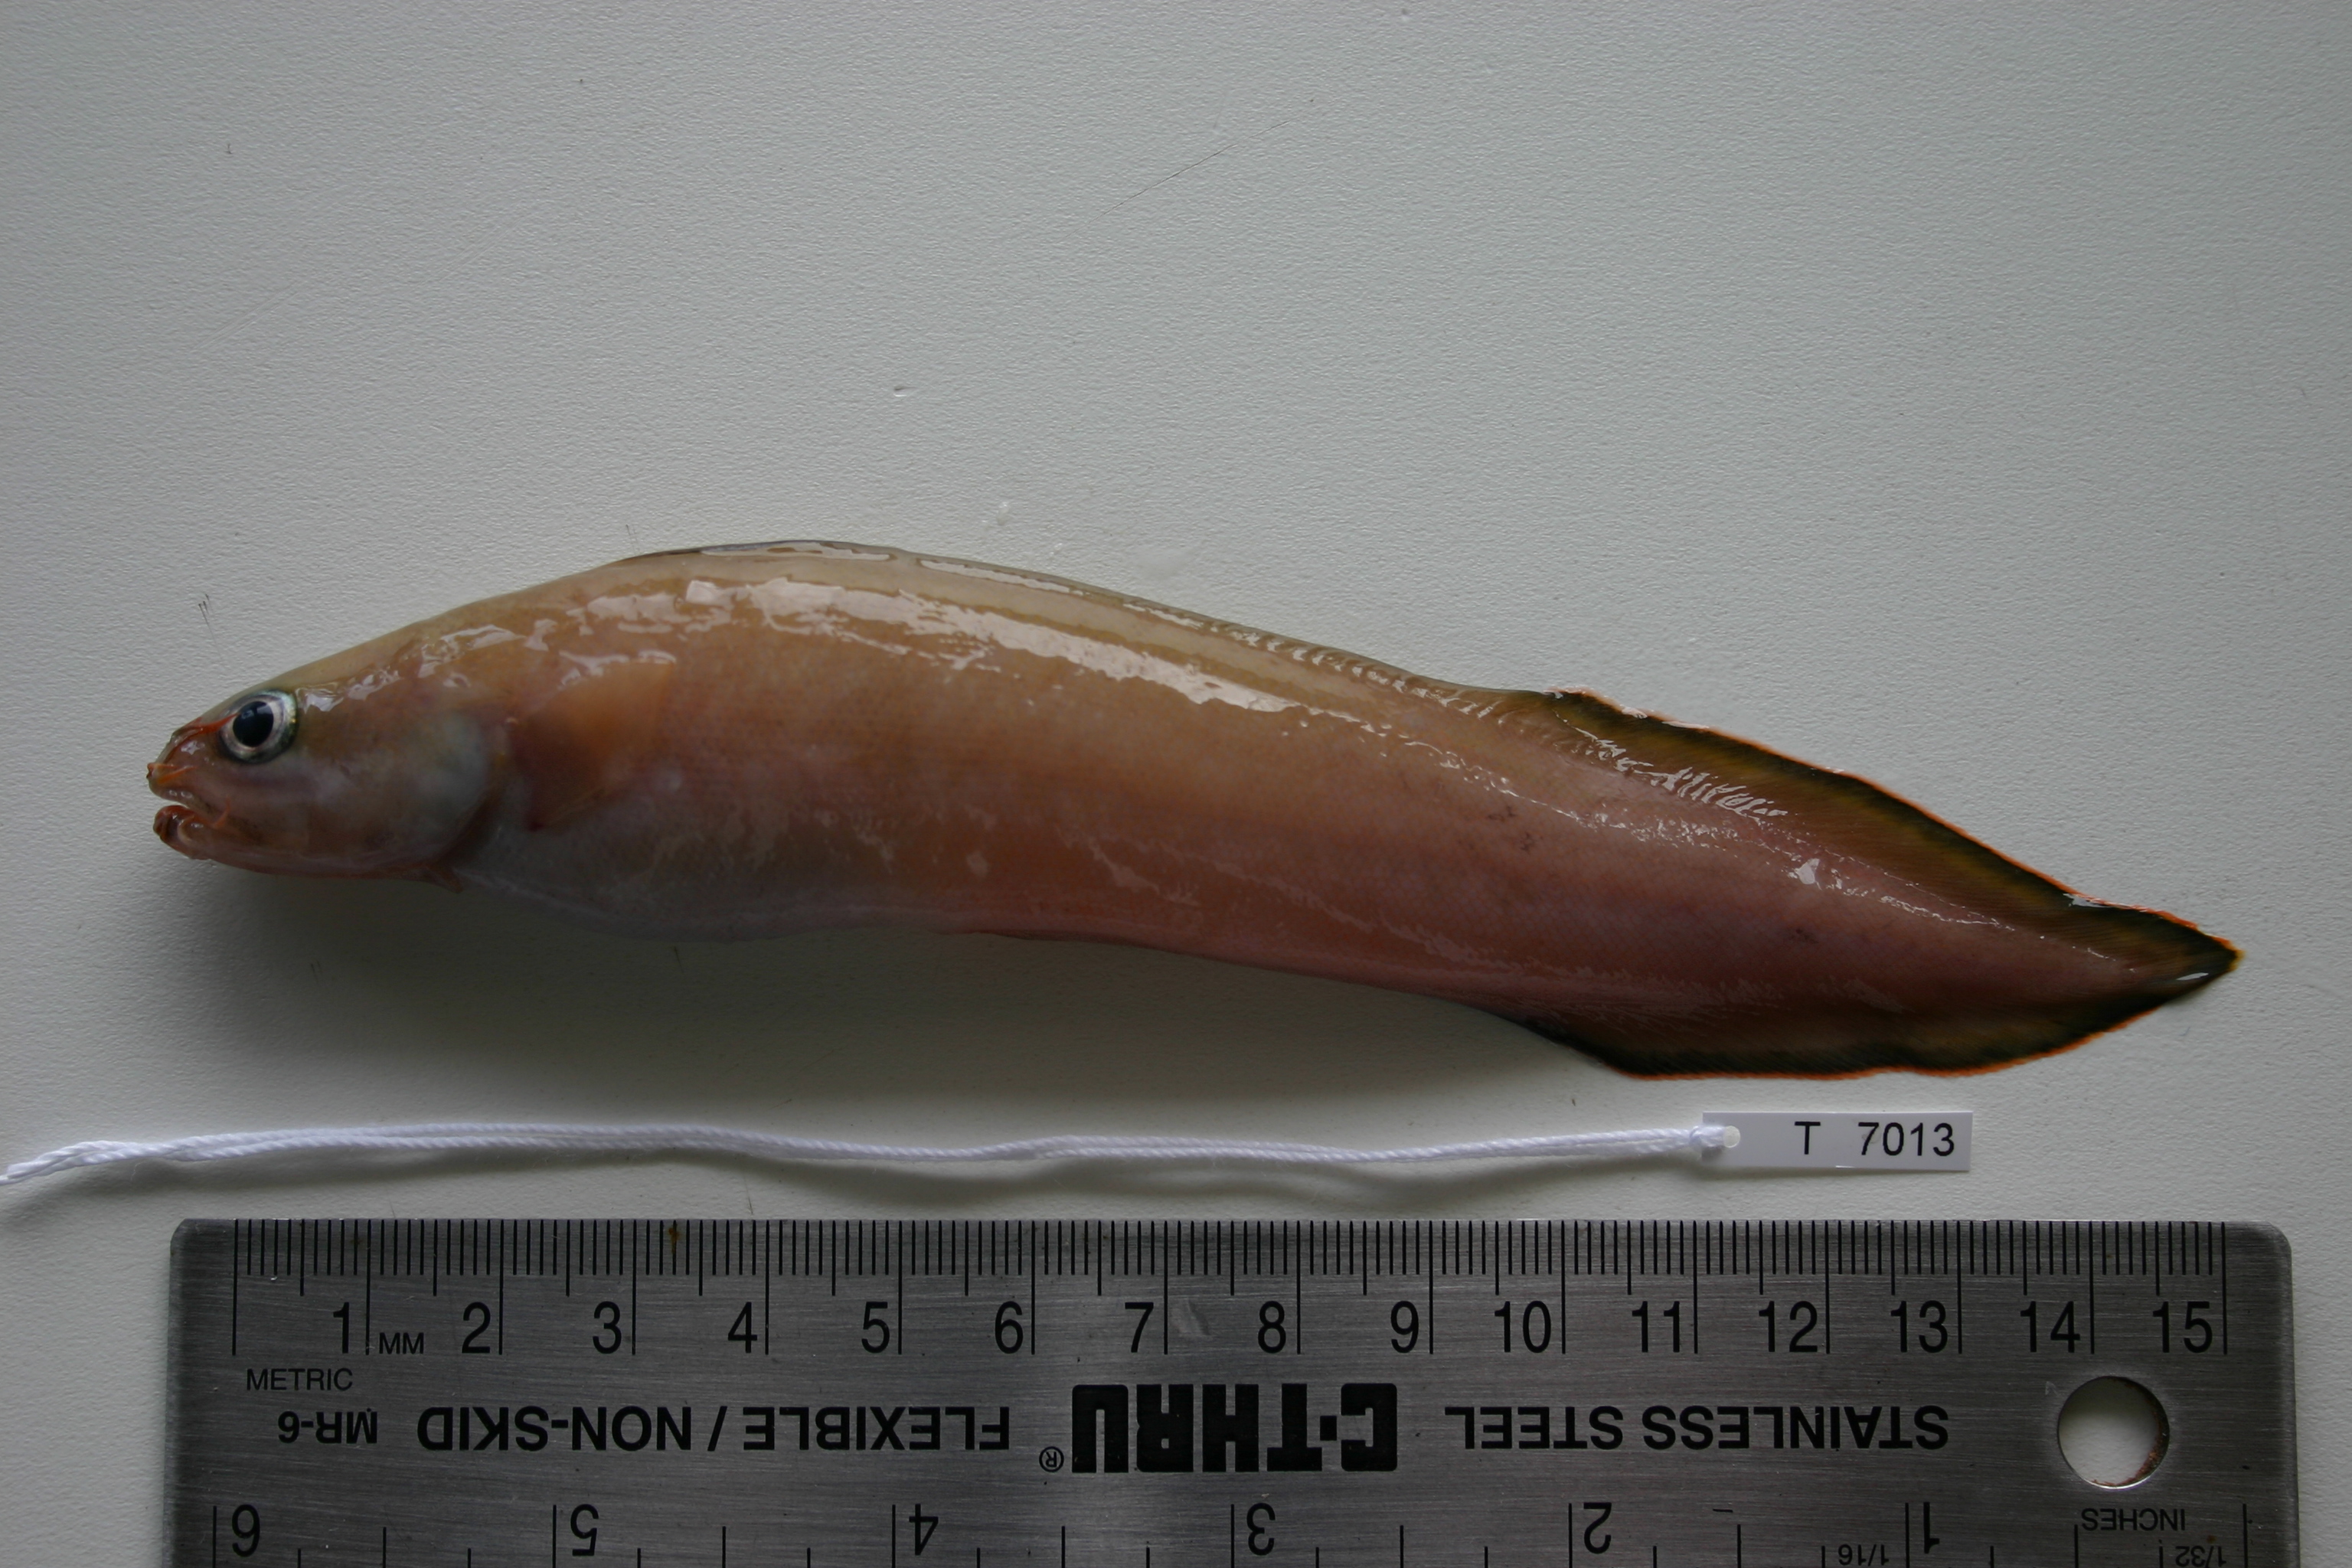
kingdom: Animalia
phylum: Chordata
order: Ophidiiformes
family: Ophidiidae
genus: Brotula
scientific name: Brotula multibarbata
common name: Goatsbeard brotula
